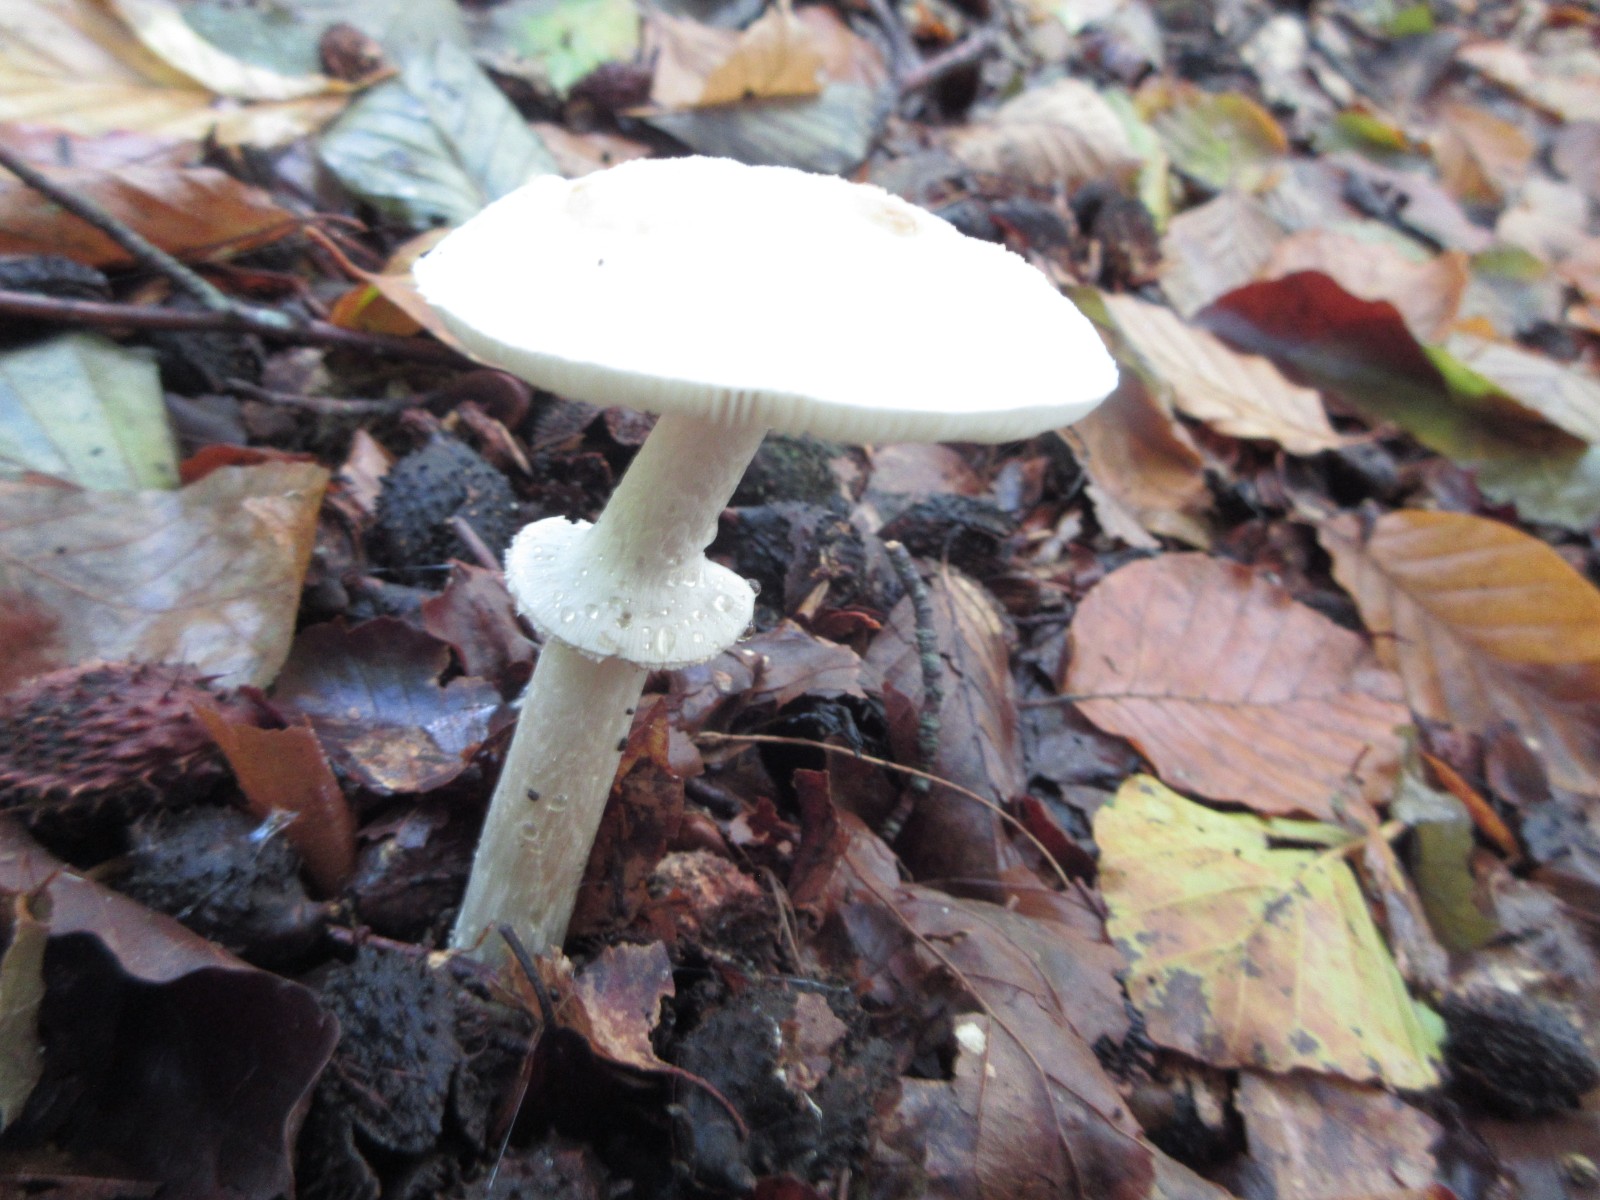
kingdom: Fungi
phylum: Basidiomycota
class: Agaricomycetes
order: Agaricales
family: Amanitaceae
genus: Amanita
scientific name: Amanita citrina
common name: False death-cap
